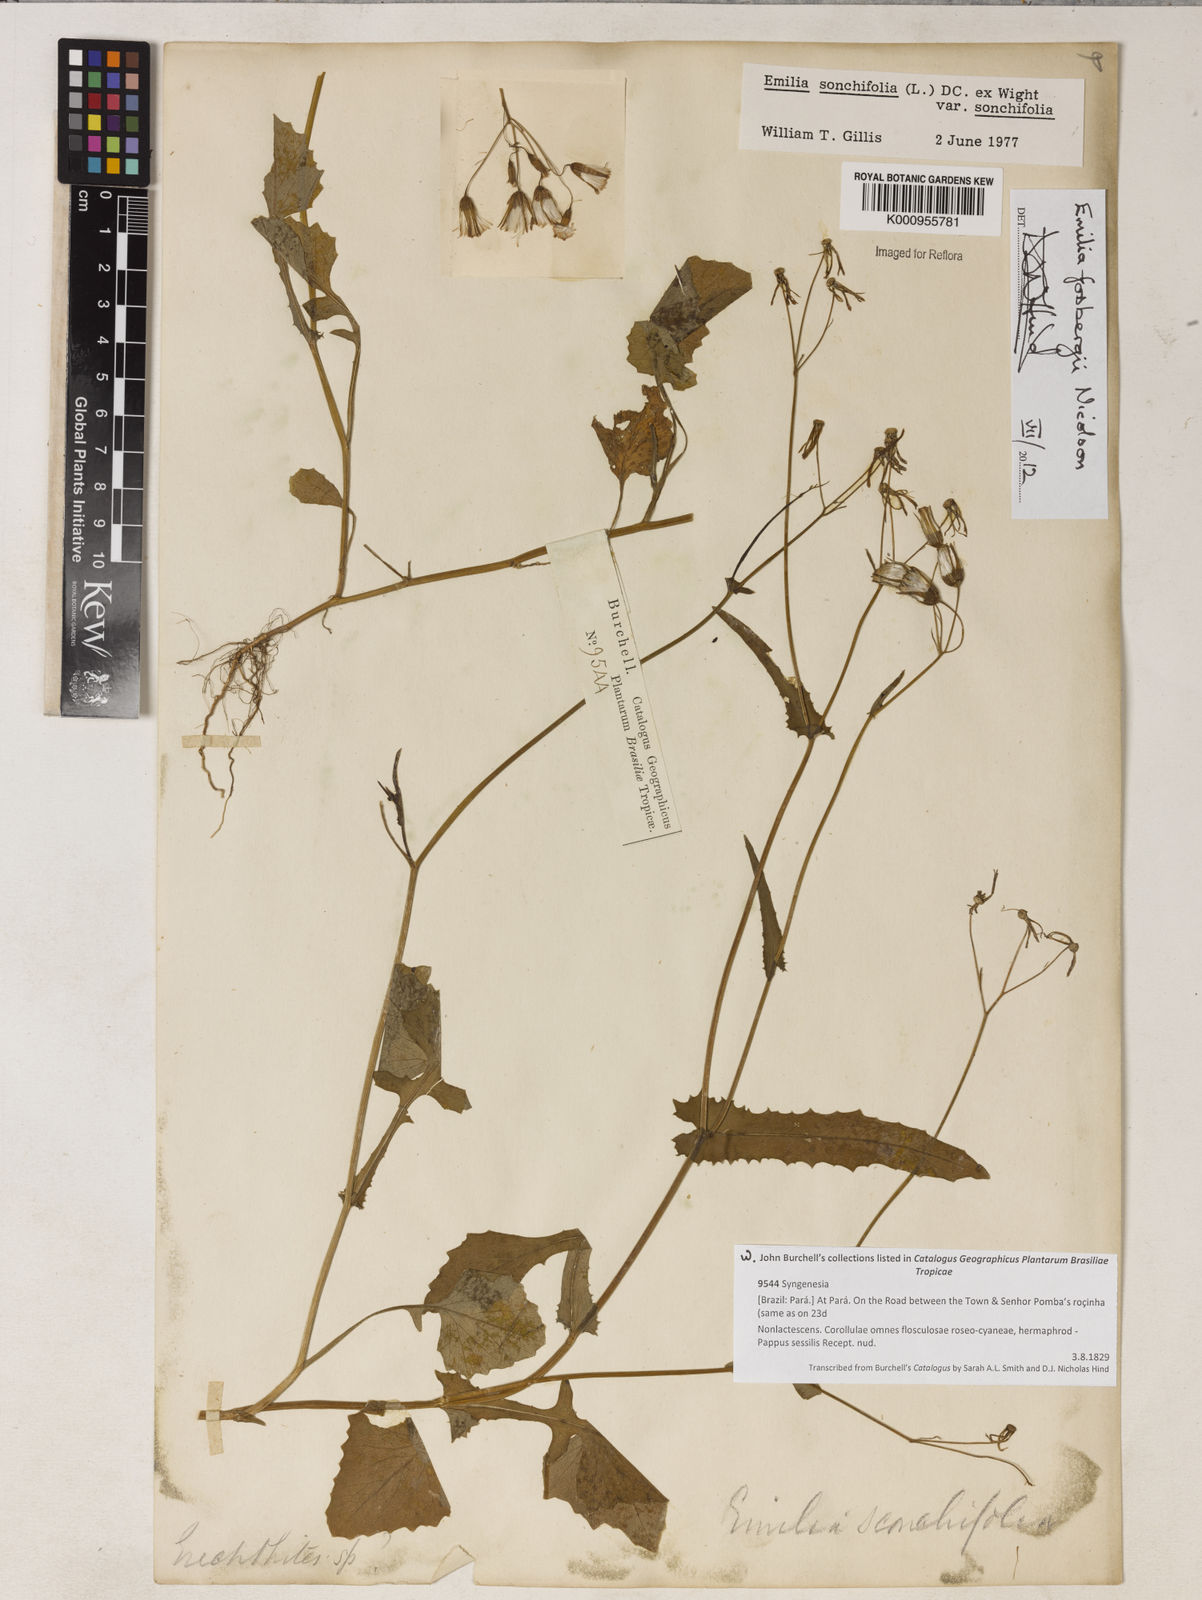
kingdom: Plantae
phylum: Tracheophyta
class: Magnoliopsida
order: Asterales
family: Asteraceae
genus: Emilia
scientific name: Emilia fosbergii
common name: Florida tasselflower
